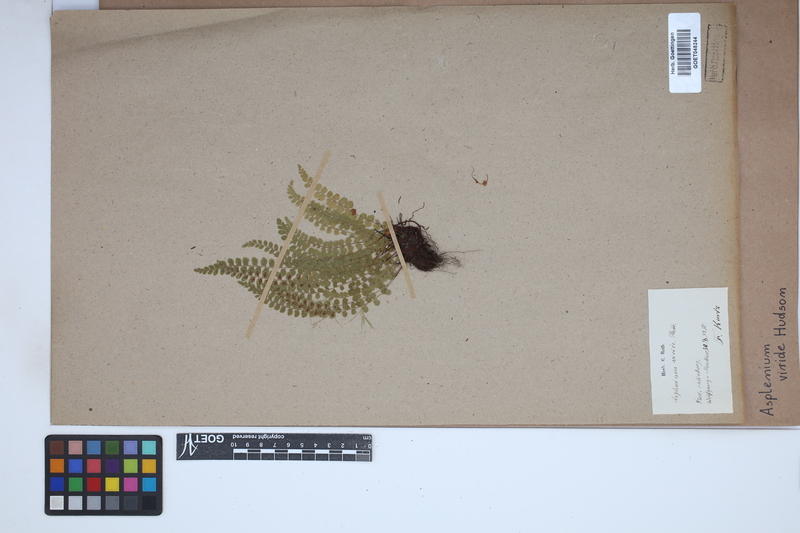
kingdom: Plantae
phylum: Tracheophyta
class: Polypodiopsida
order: Polypodiales
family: Aspleniaceae
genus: Asplenium
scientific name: Asplenium viride
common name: Green spleenwort
